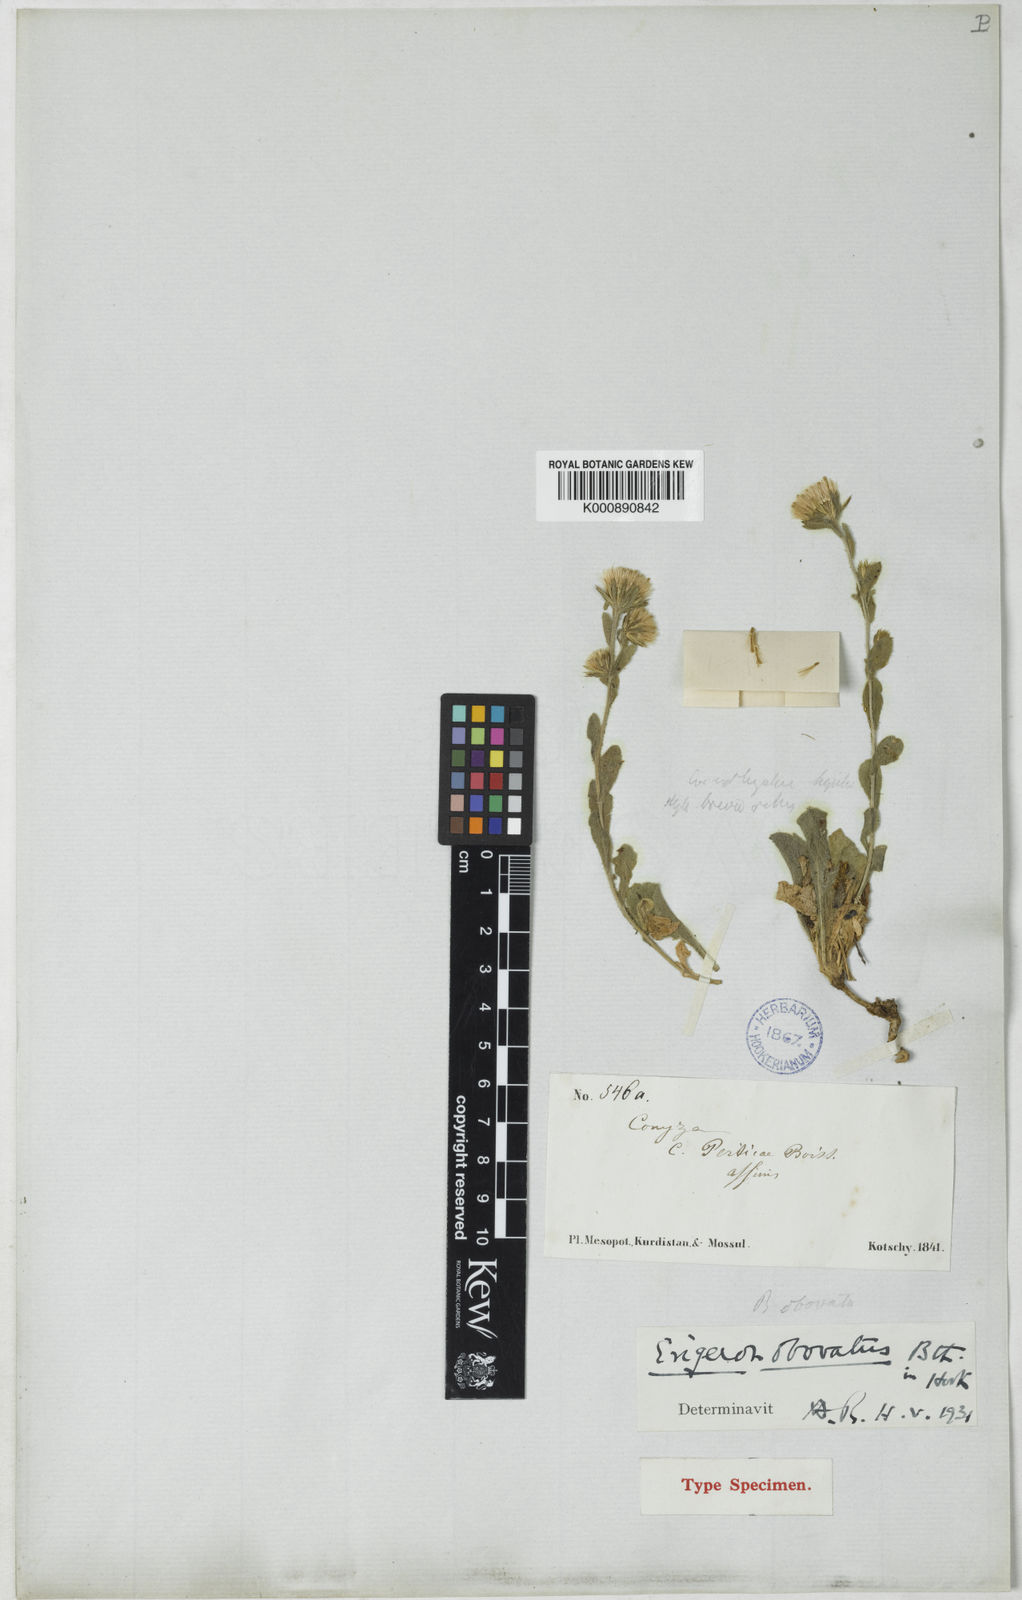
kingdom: Plantae
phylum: Tracheophyta
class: Magnoliopsida
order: Asterales
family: Asteraceae
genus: Neobrachyactis
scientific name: Neobrachyactis obovata
